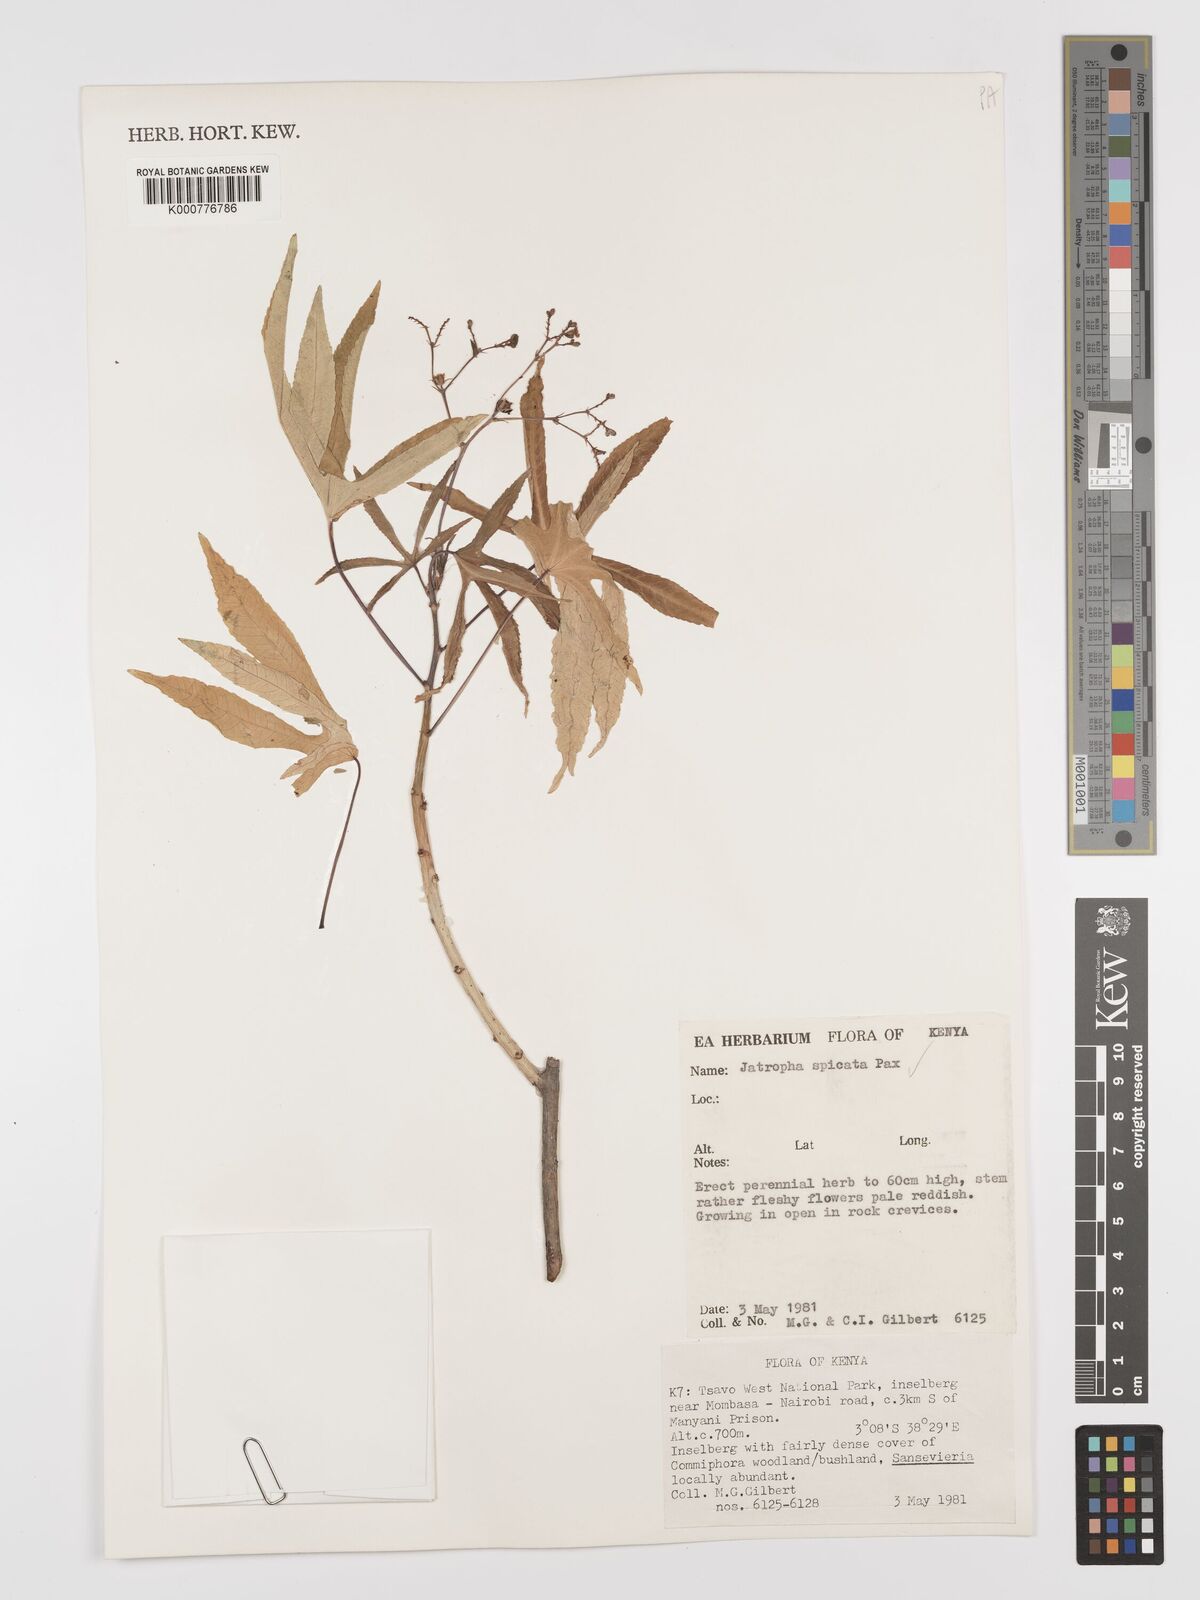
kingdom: Plantae
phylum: Tracheophyta
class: Magnoliopsida
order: Malpighiales
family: Euphorbiaceae
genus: Jatropha
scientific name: Jatropha spicata
